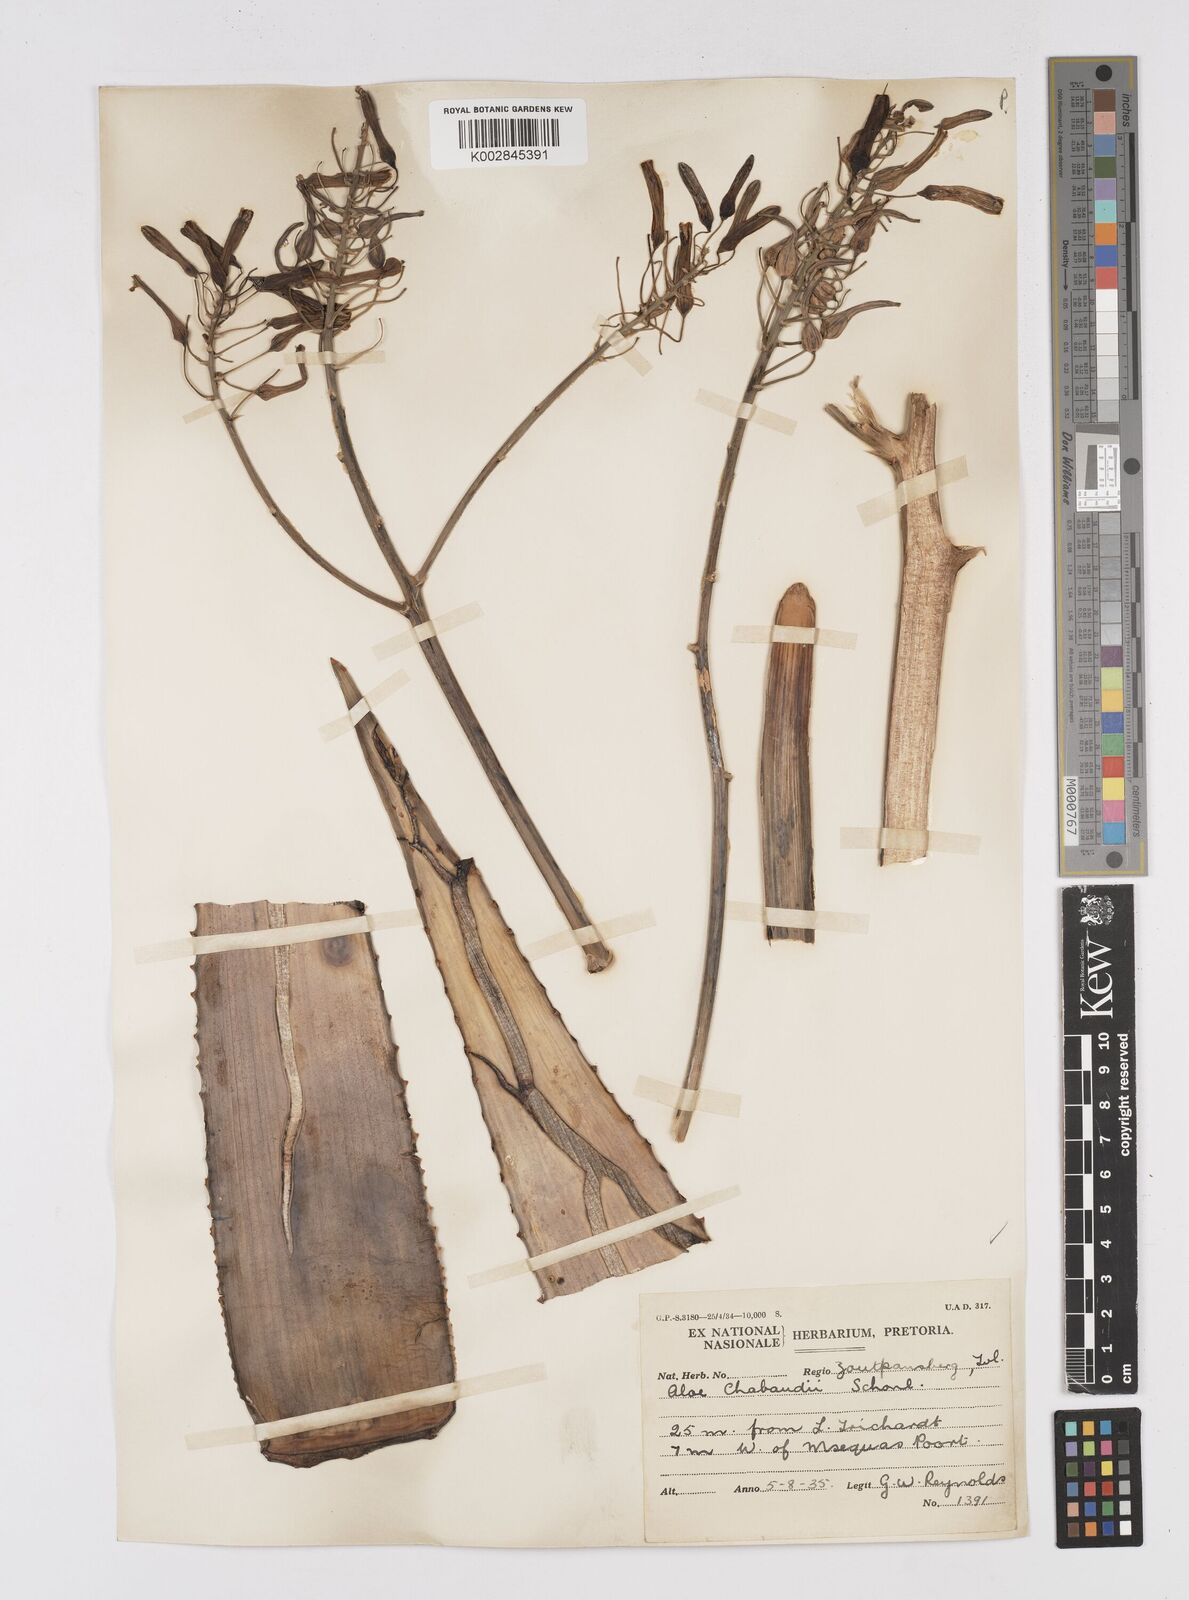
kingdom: Plantae
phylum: Tracheophyta
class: Liliopsida
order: Asparagales
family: Asphodelaceae
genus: Aloe
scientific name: Aloe chabaudii
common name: Chabaud's aloe
